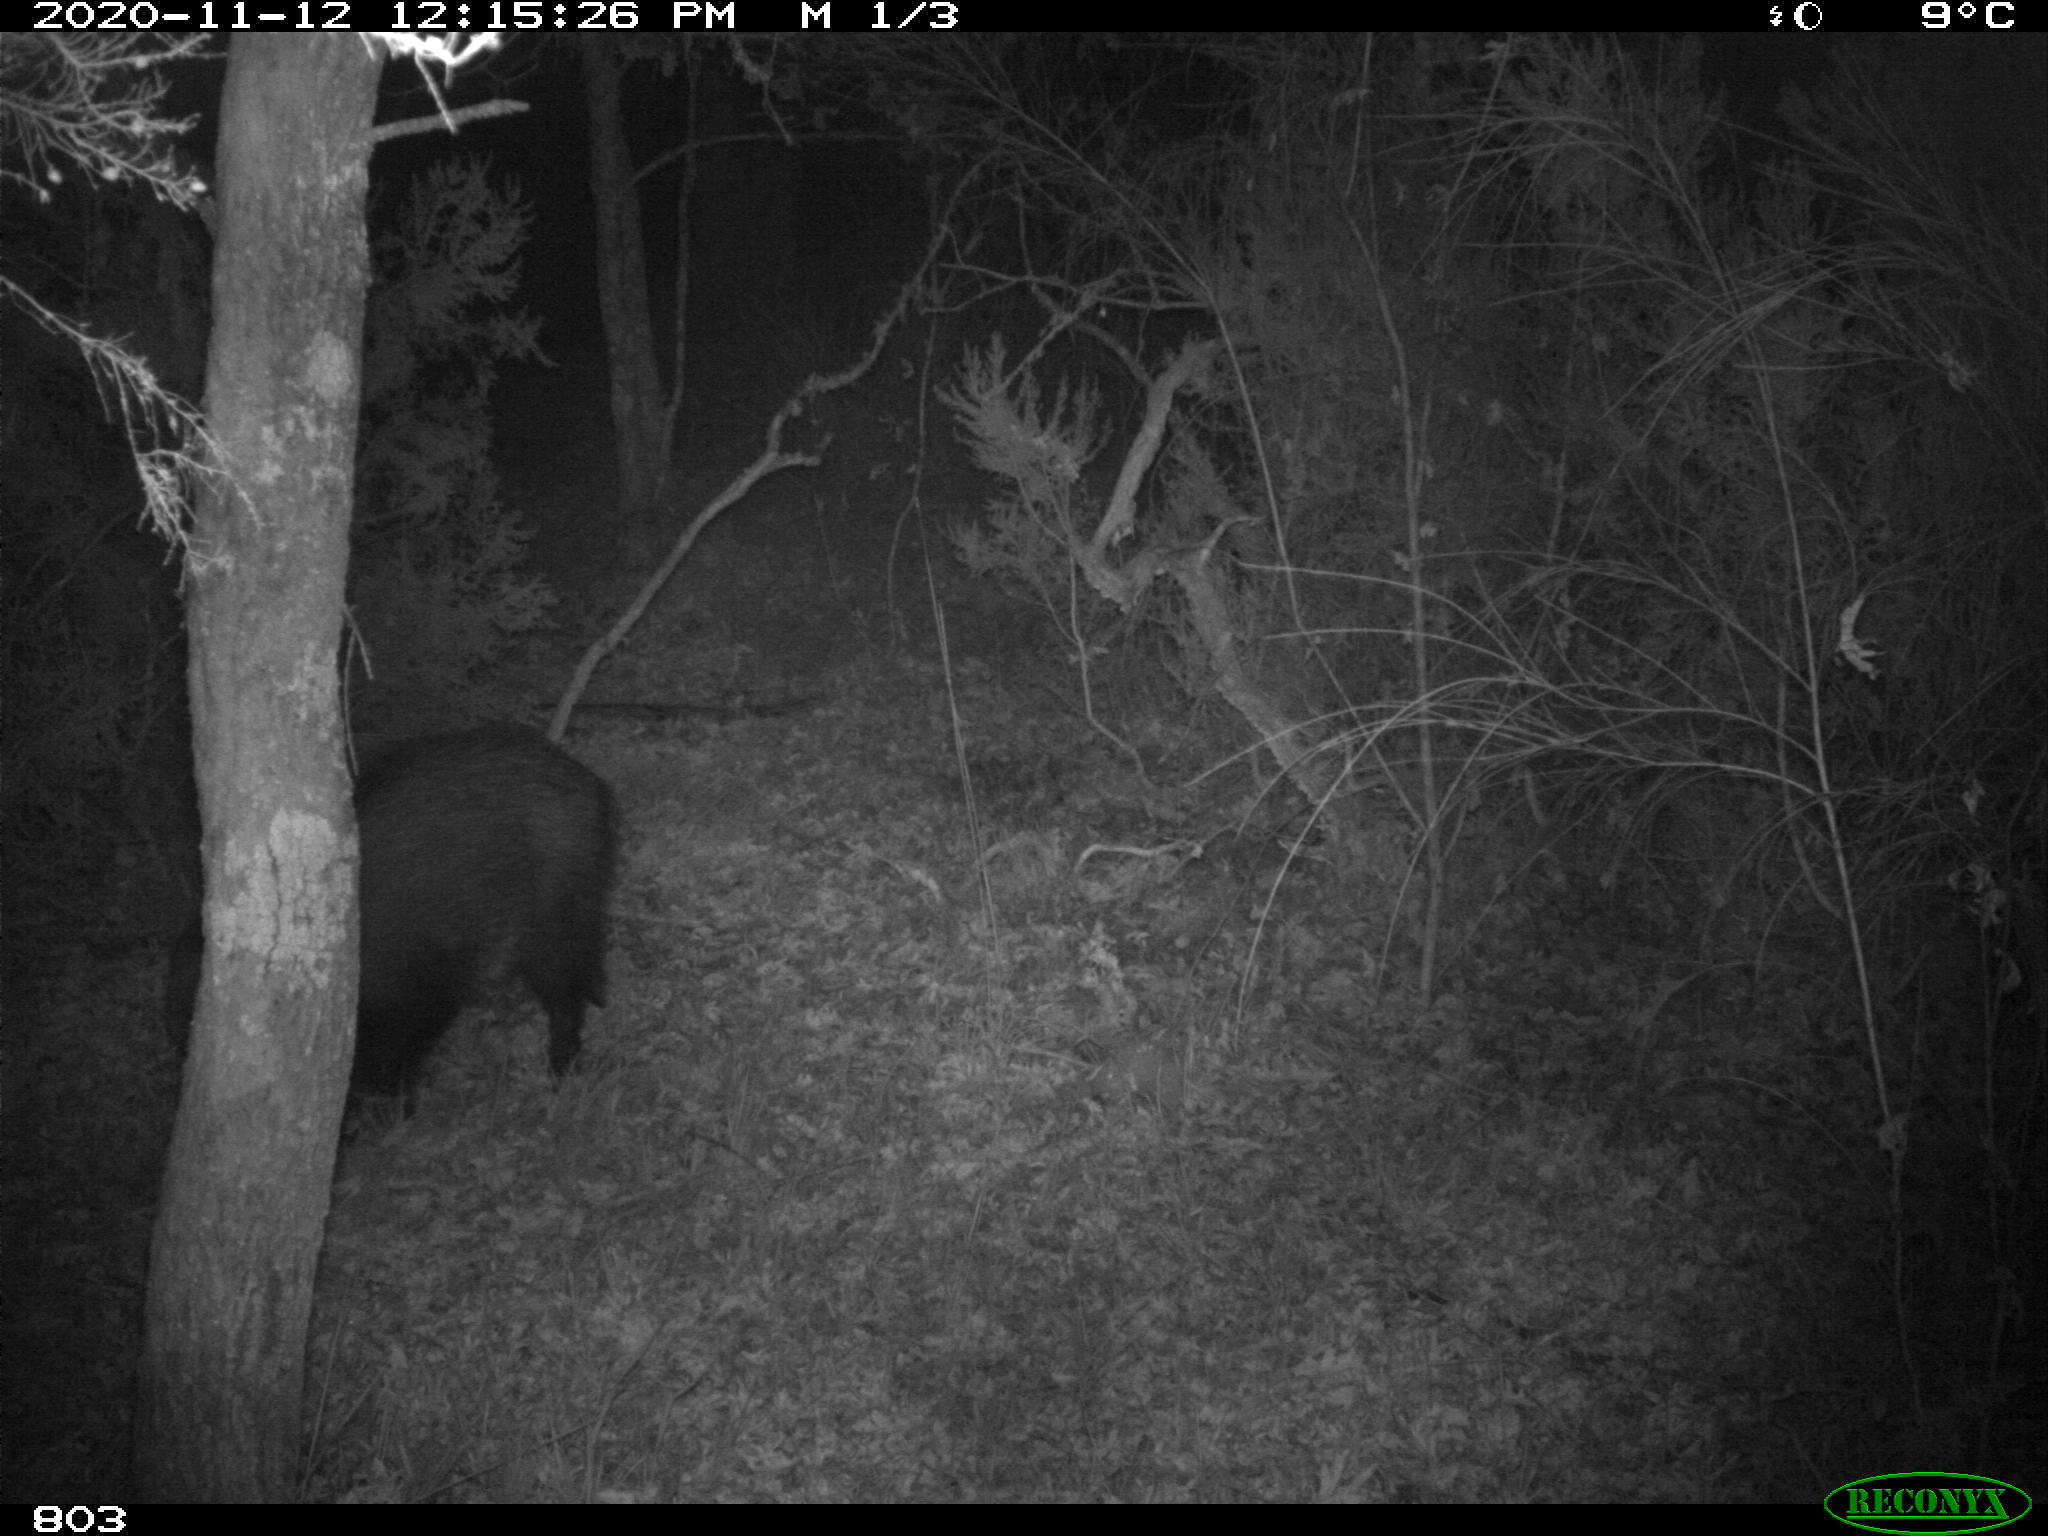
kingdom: Animalia
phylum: Chordata
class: Mammalia
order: Artiodactyla
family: Suidae
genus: Sus
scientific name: Sus scrofa
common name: Wild boar
